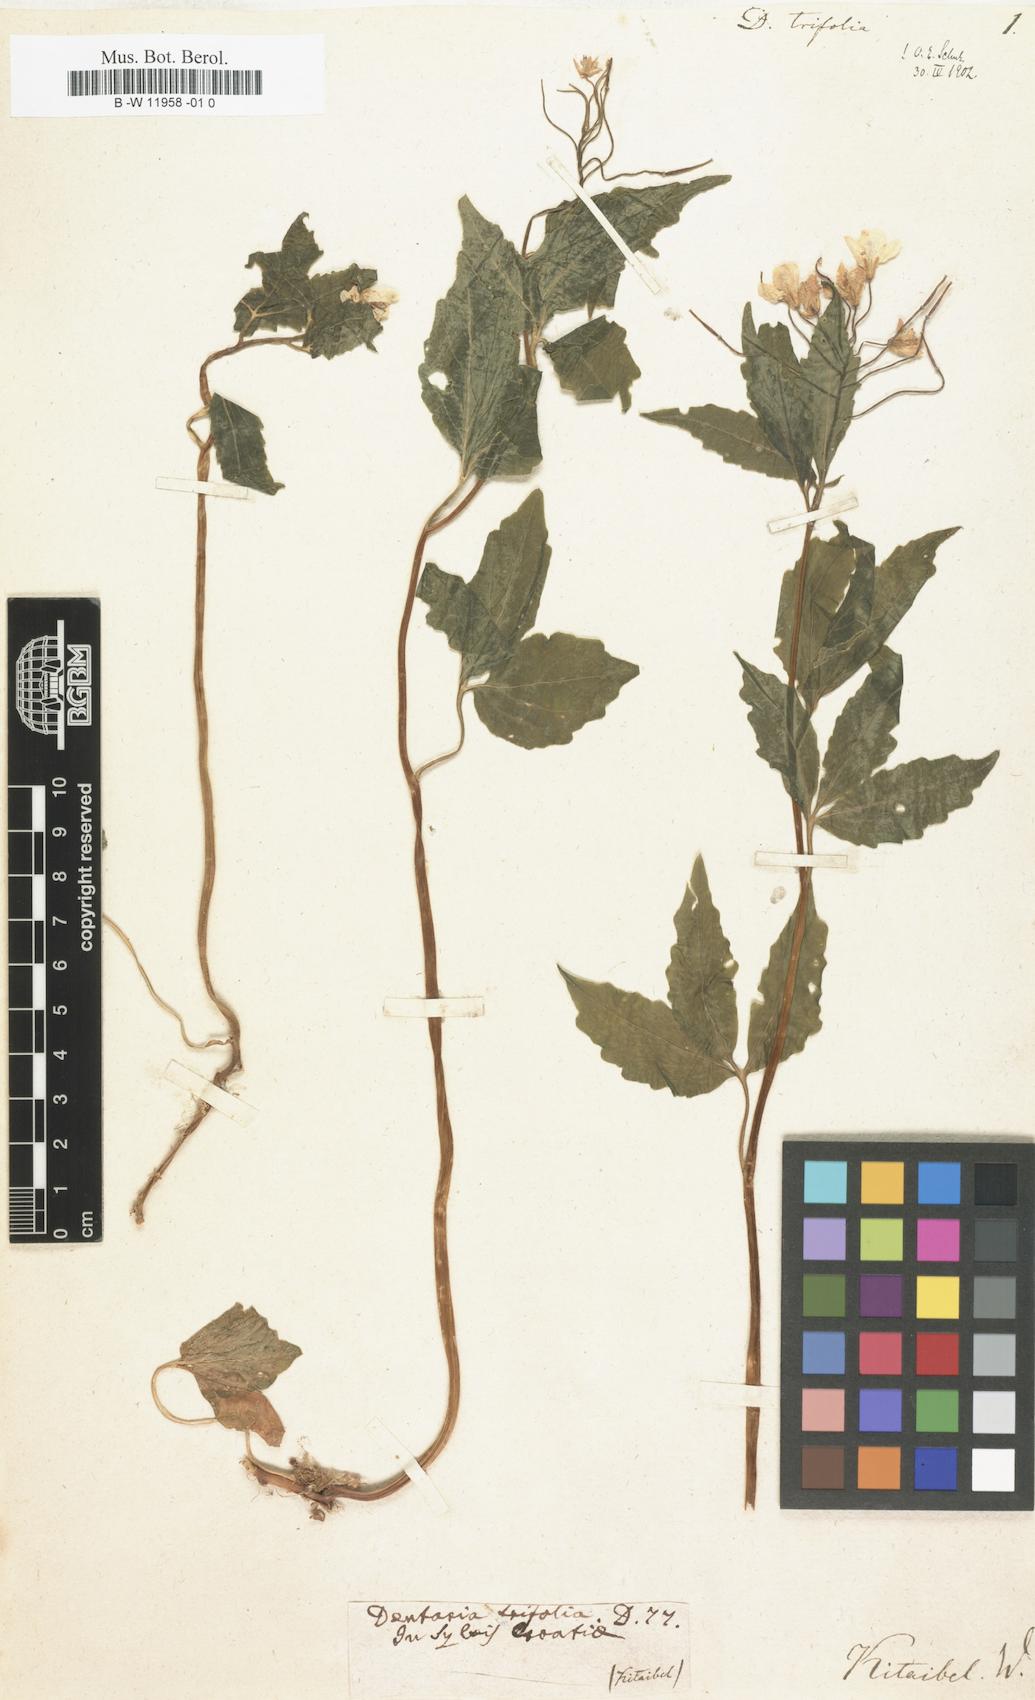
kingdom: Plantae
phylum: Tracheophyta
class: Magnoliopsida
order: Brassicales
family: Brassicaceae
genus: Cardamine
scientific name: Cardamine waldsteinii
